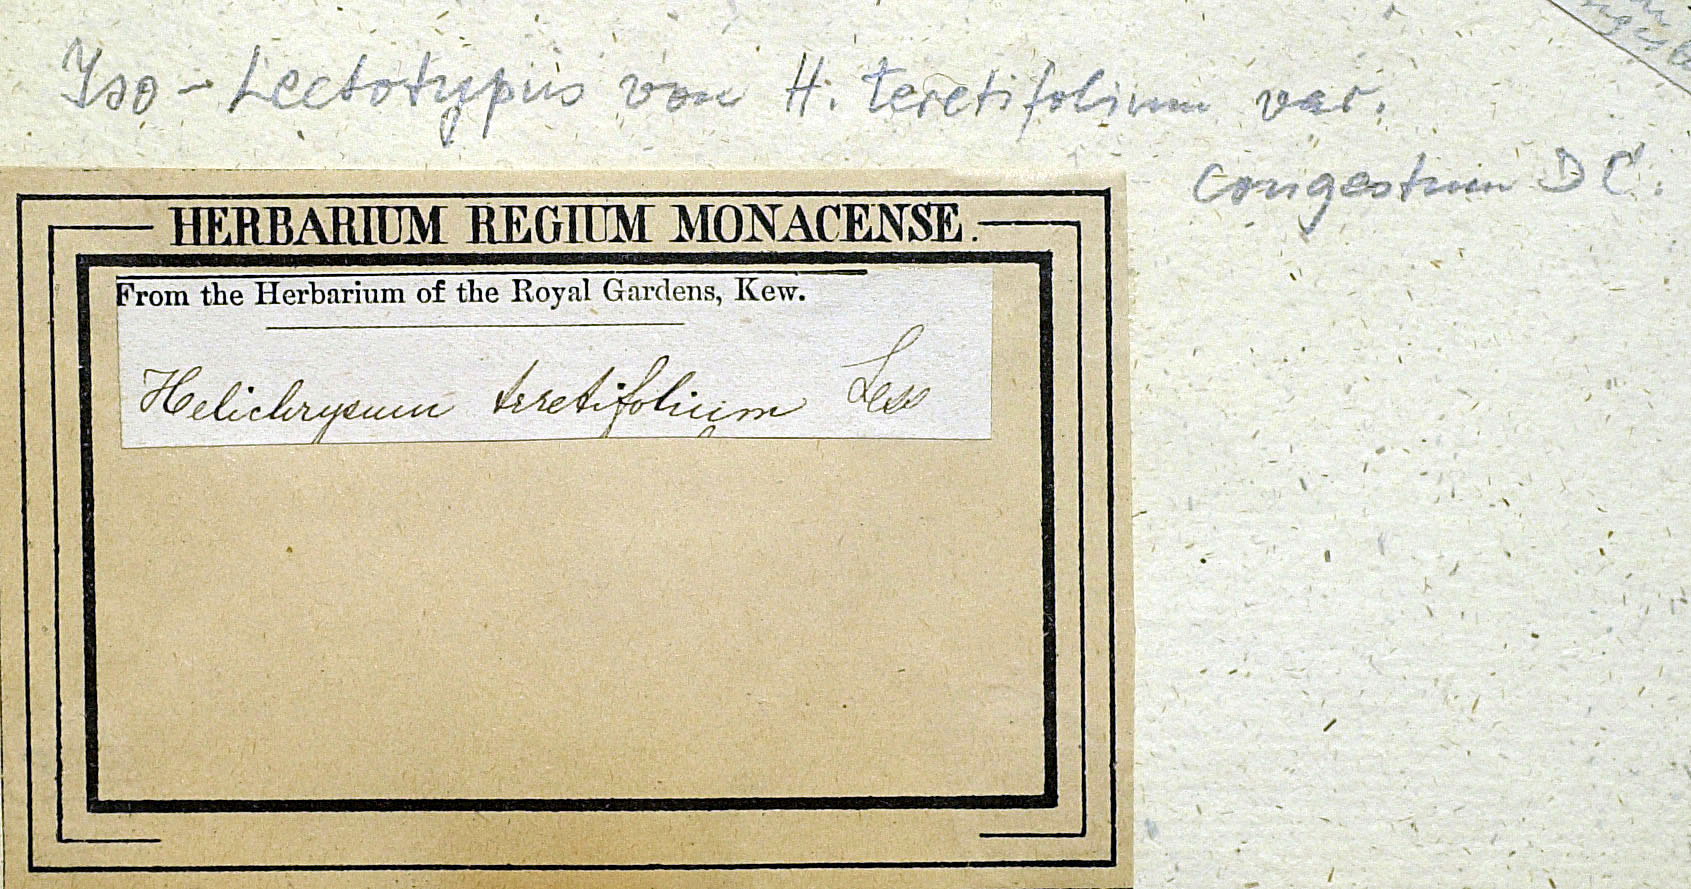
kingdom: Plantae
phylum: Tracheophyta
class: Magnoliopsida
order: Asterales
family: Asteraceae
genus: Helichrysum
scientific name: Helichrysum teretifolium
